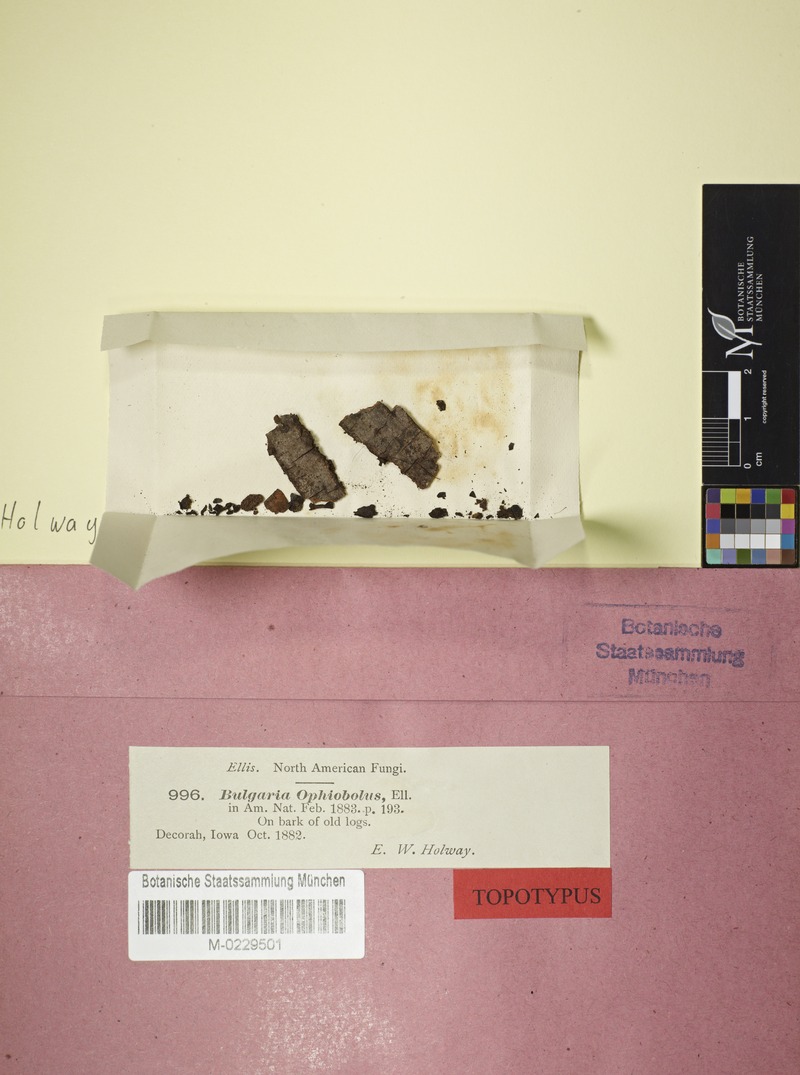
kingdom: Fungi
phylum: Ascomycota
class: Leotiomycetes
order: Helotiales
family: Bulgariaceae
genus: Holwaya
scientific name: Holwaya mucida
